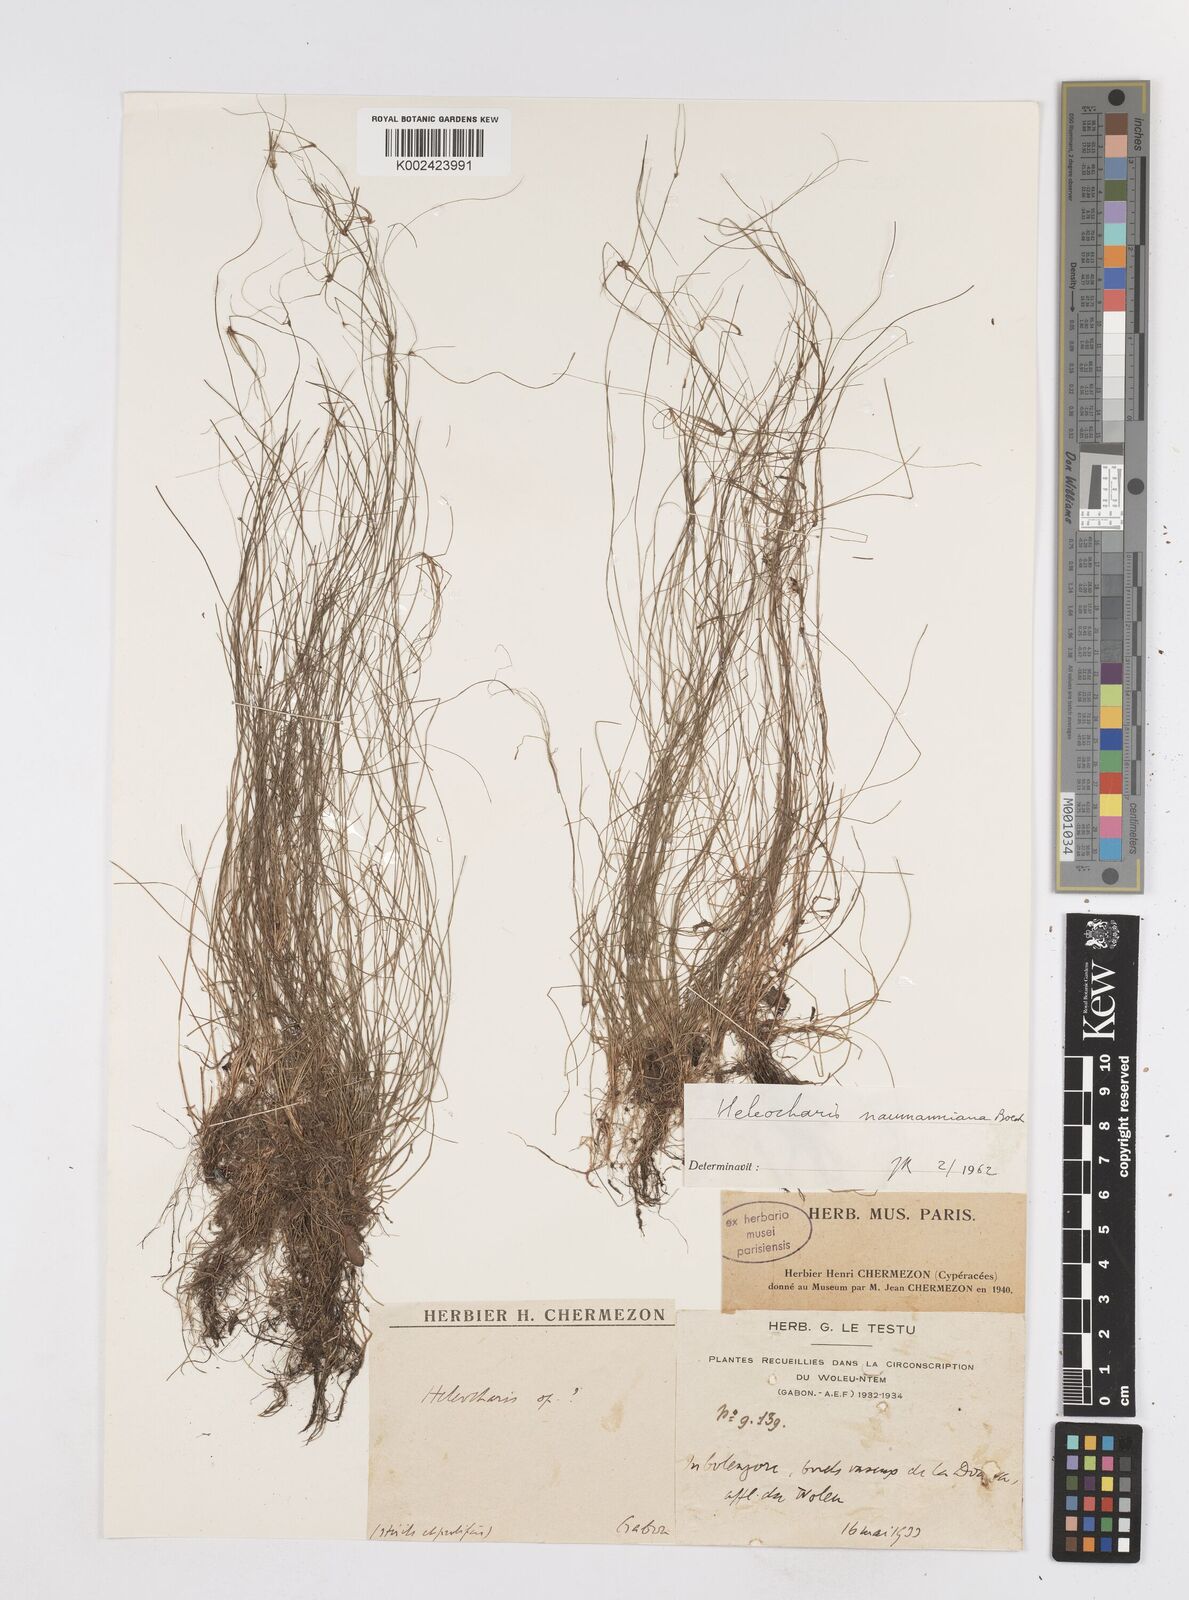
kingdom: Plantae
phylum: Tracheophyta
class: Liliopsida
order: Poales
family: Cyperaceae
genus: Eleocharis
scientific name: Eleocharis naumanniana
